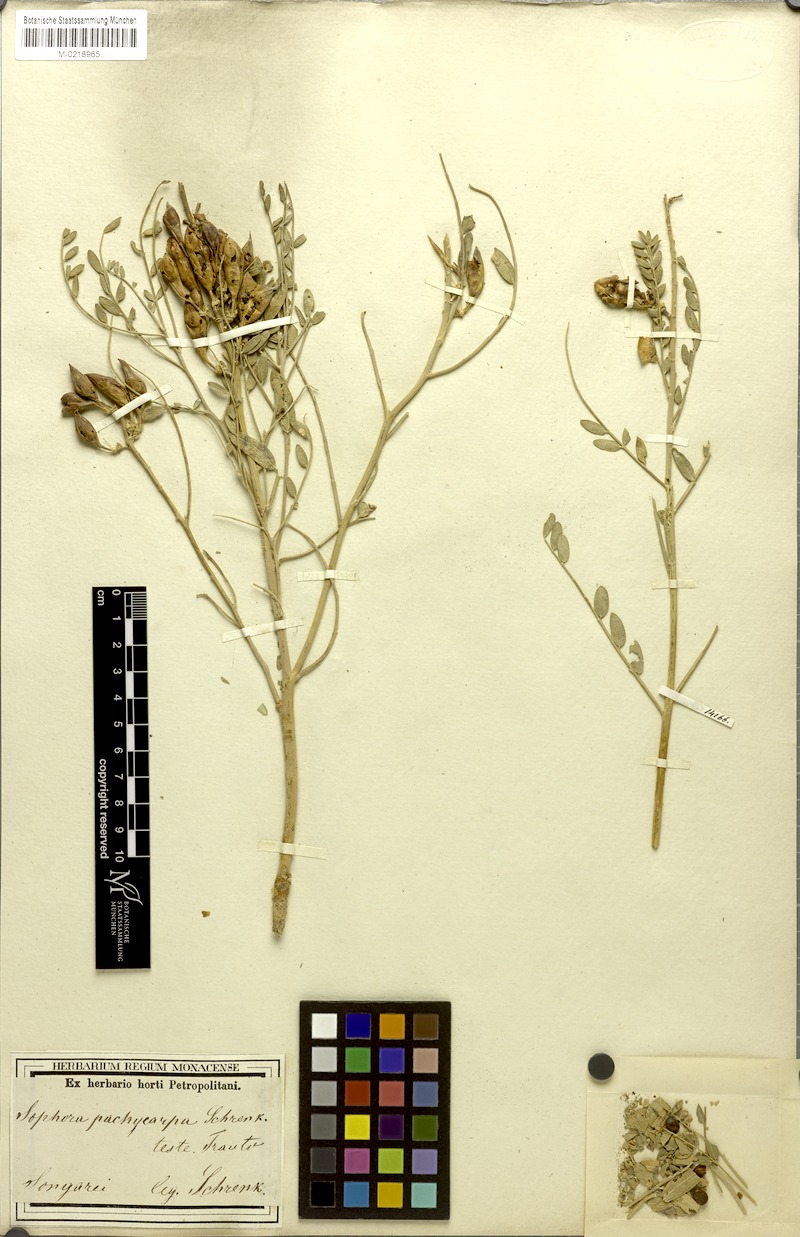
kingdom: Plantae
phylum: Tracheophyta
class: Magnoliopsida
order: Fabales
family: Fabaceae
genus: Sophora
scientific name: Sophora pachycarpa
